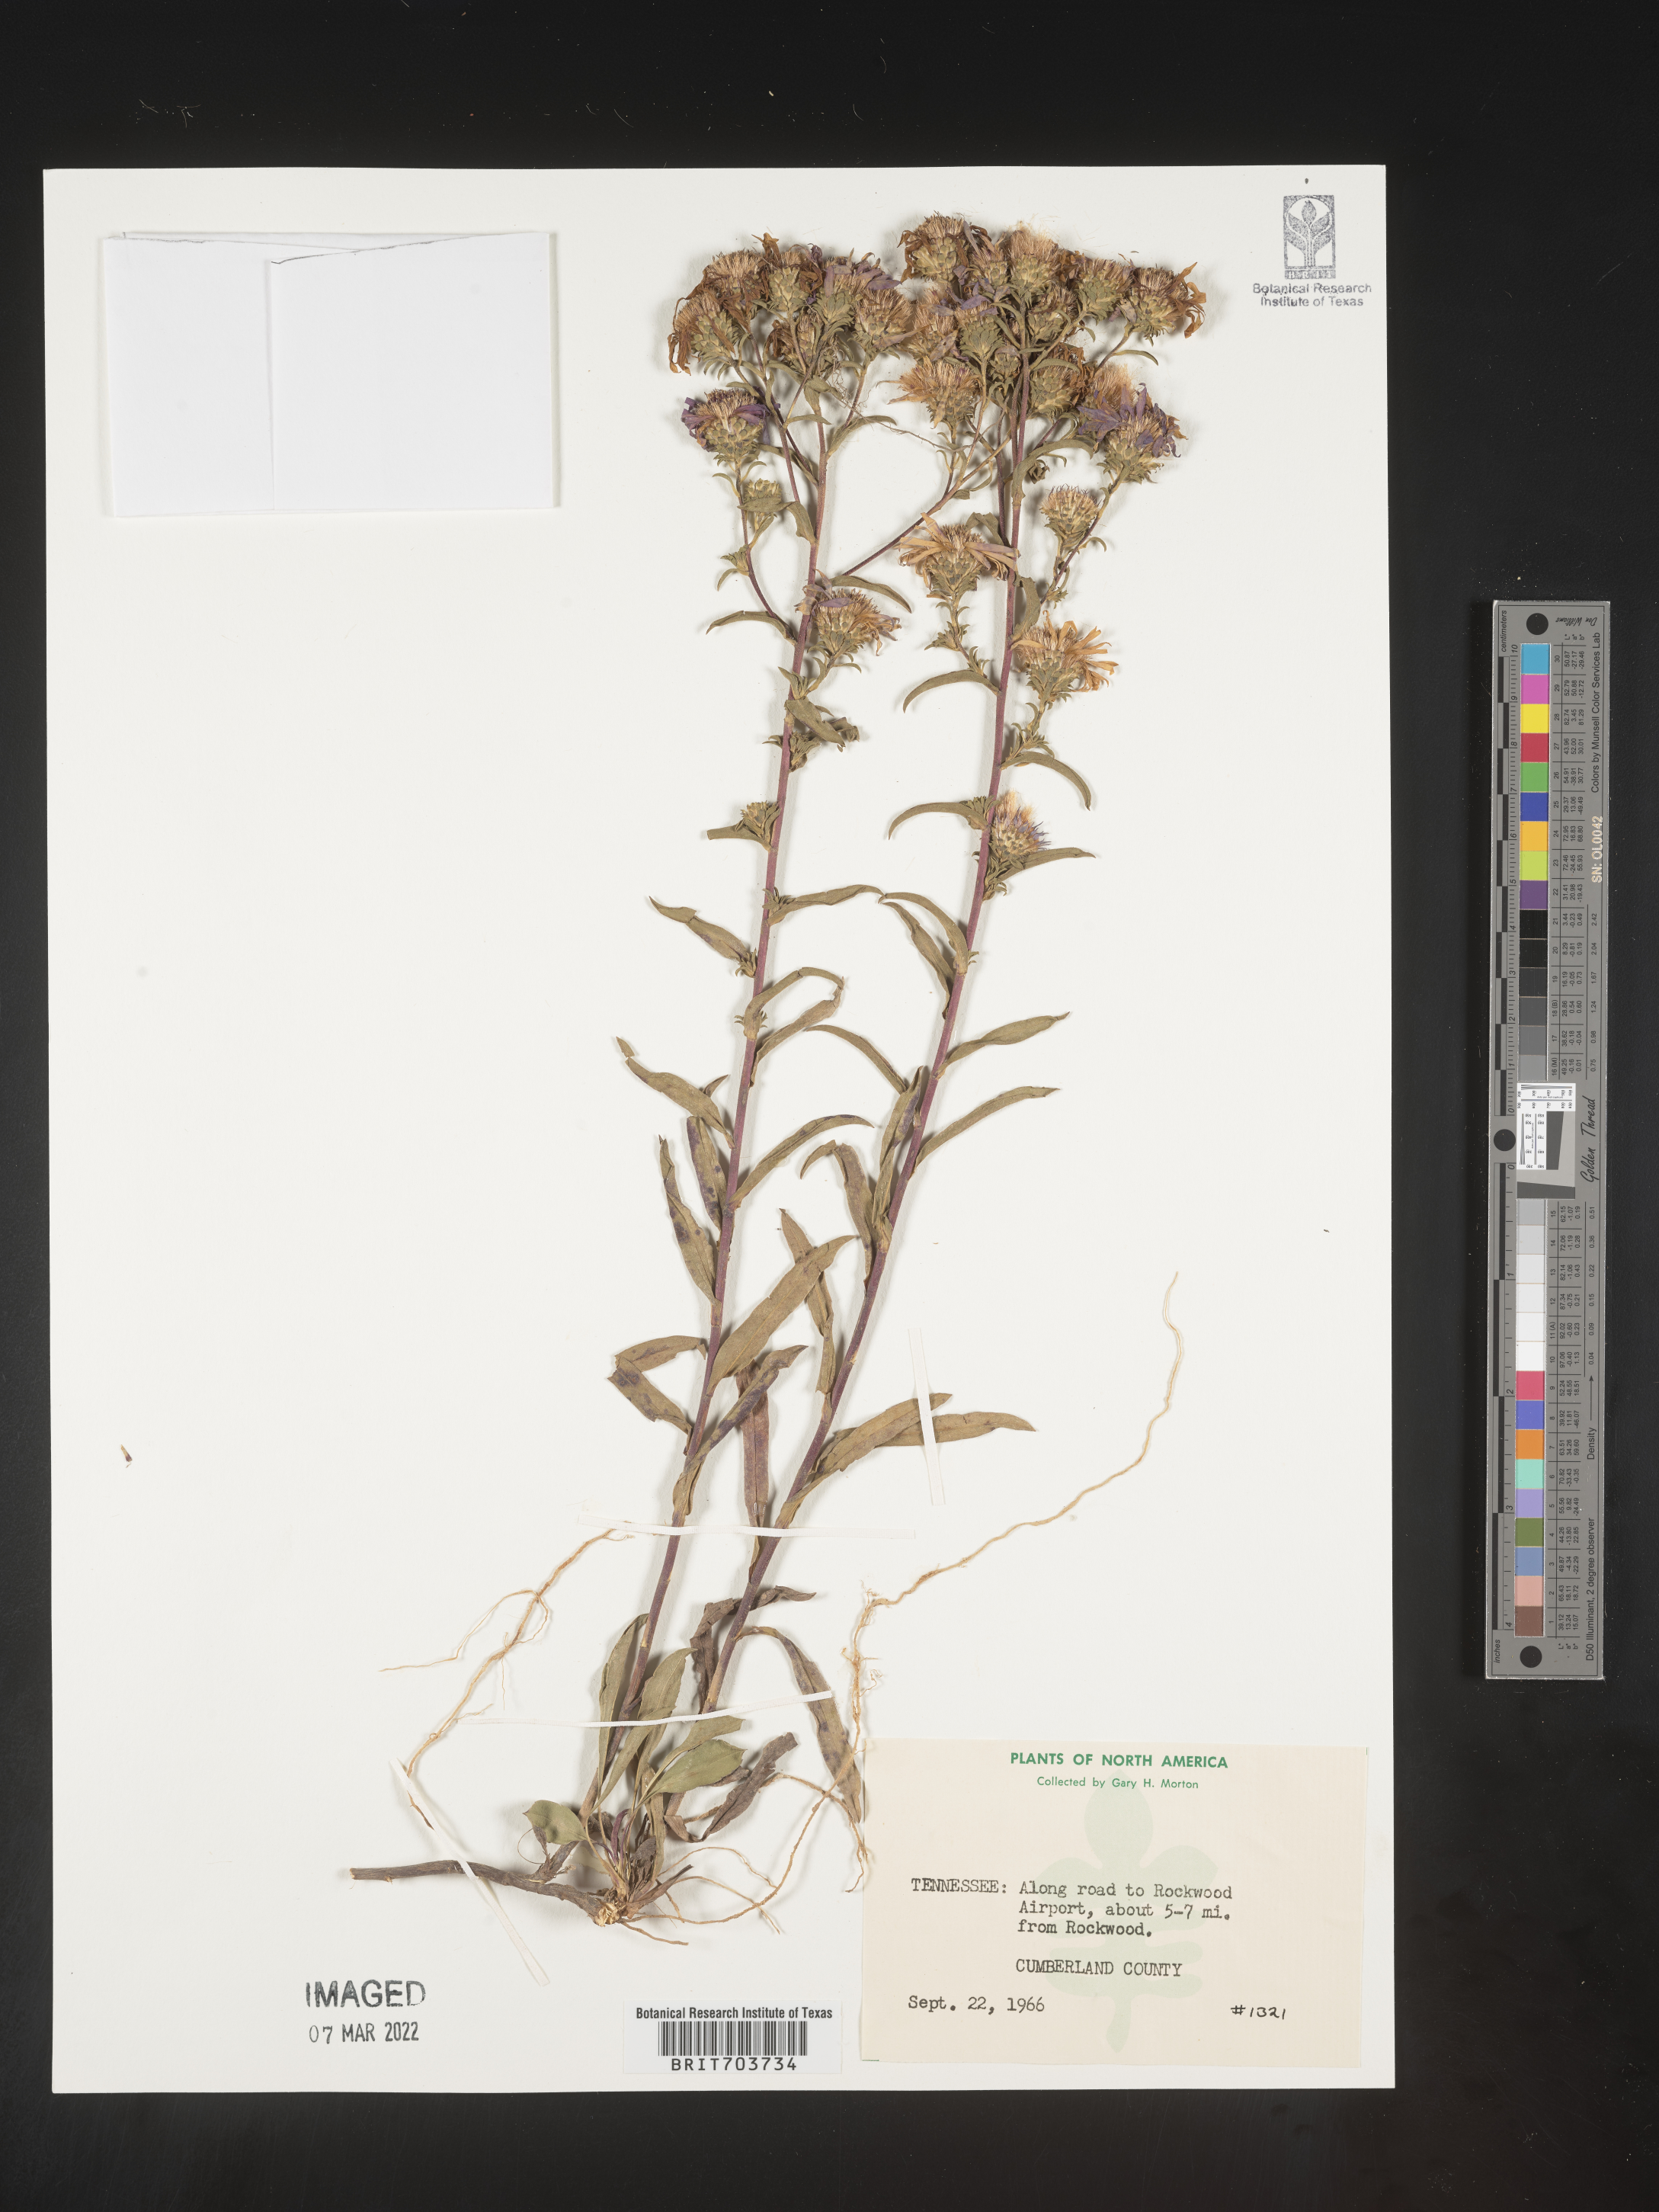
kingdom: Plantae
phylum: Tracheophyta
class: Magnoliopsida
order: Asterales
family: Asteraceae
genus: Eurybia
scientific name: Eurybia
